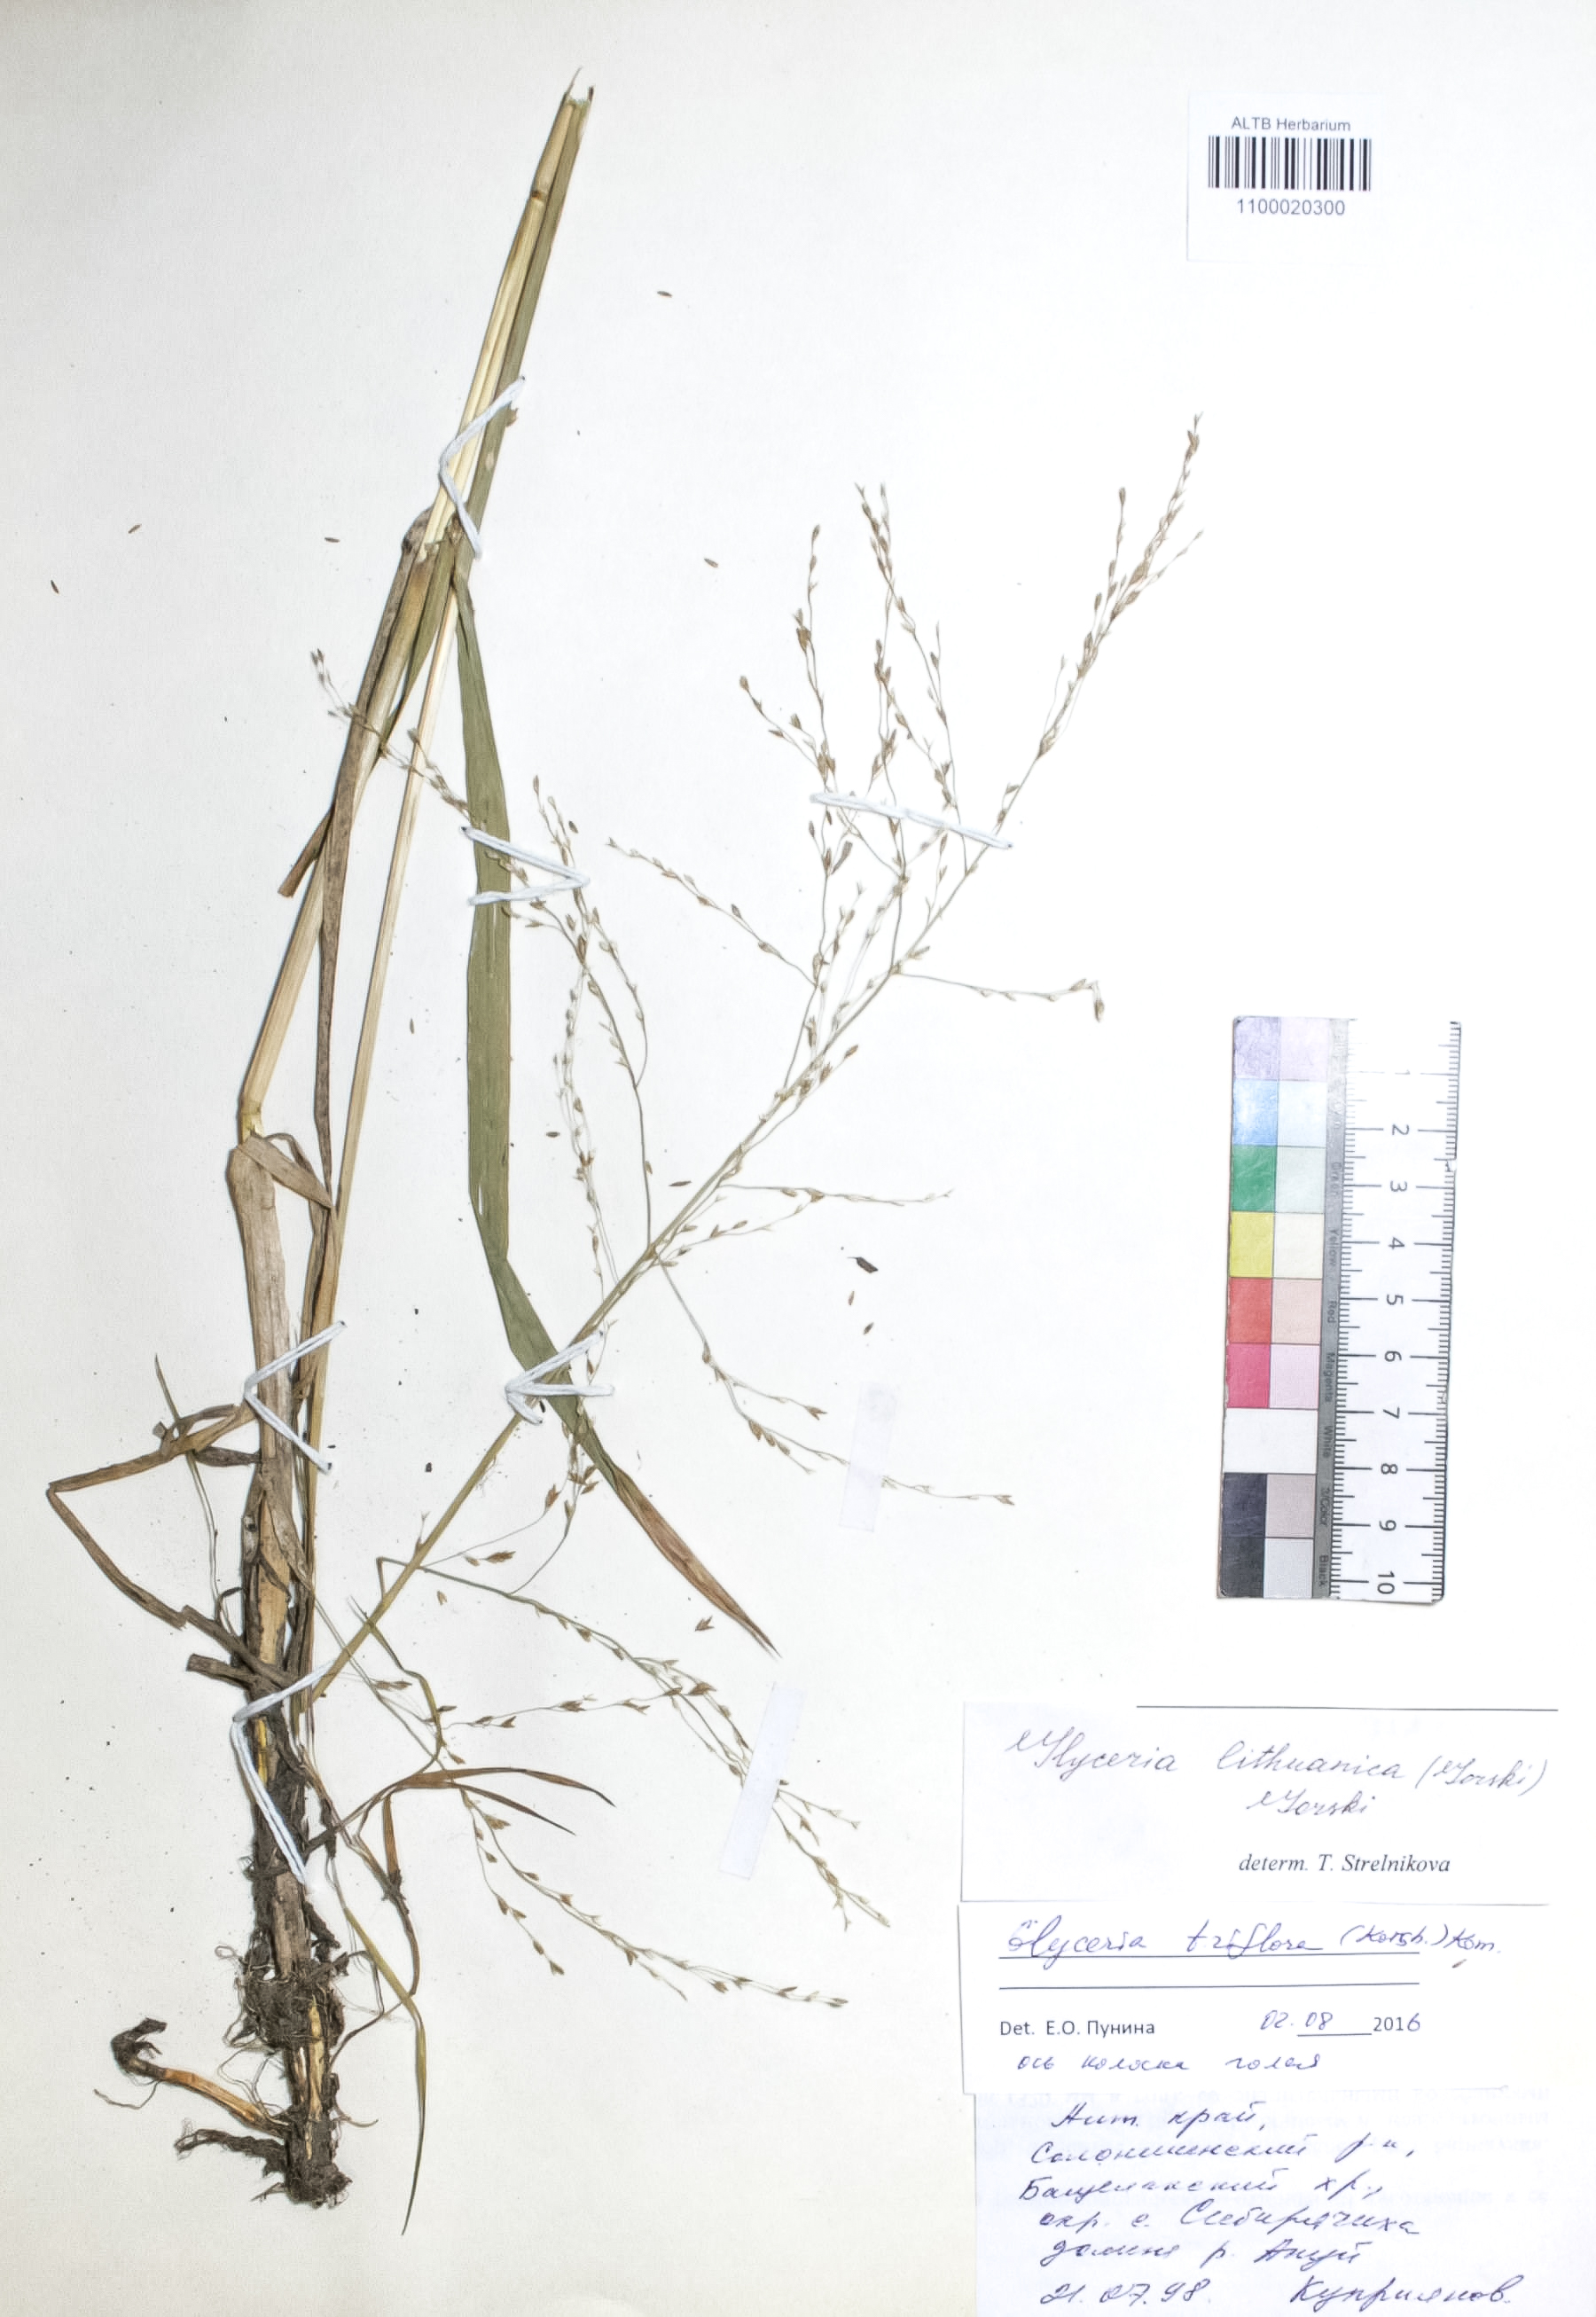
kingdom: Plantae
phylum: Tracheophyta
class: Liliopsida
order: Poales
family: Poaceae
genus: Glyceria
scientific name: Glyceria lithuanica
